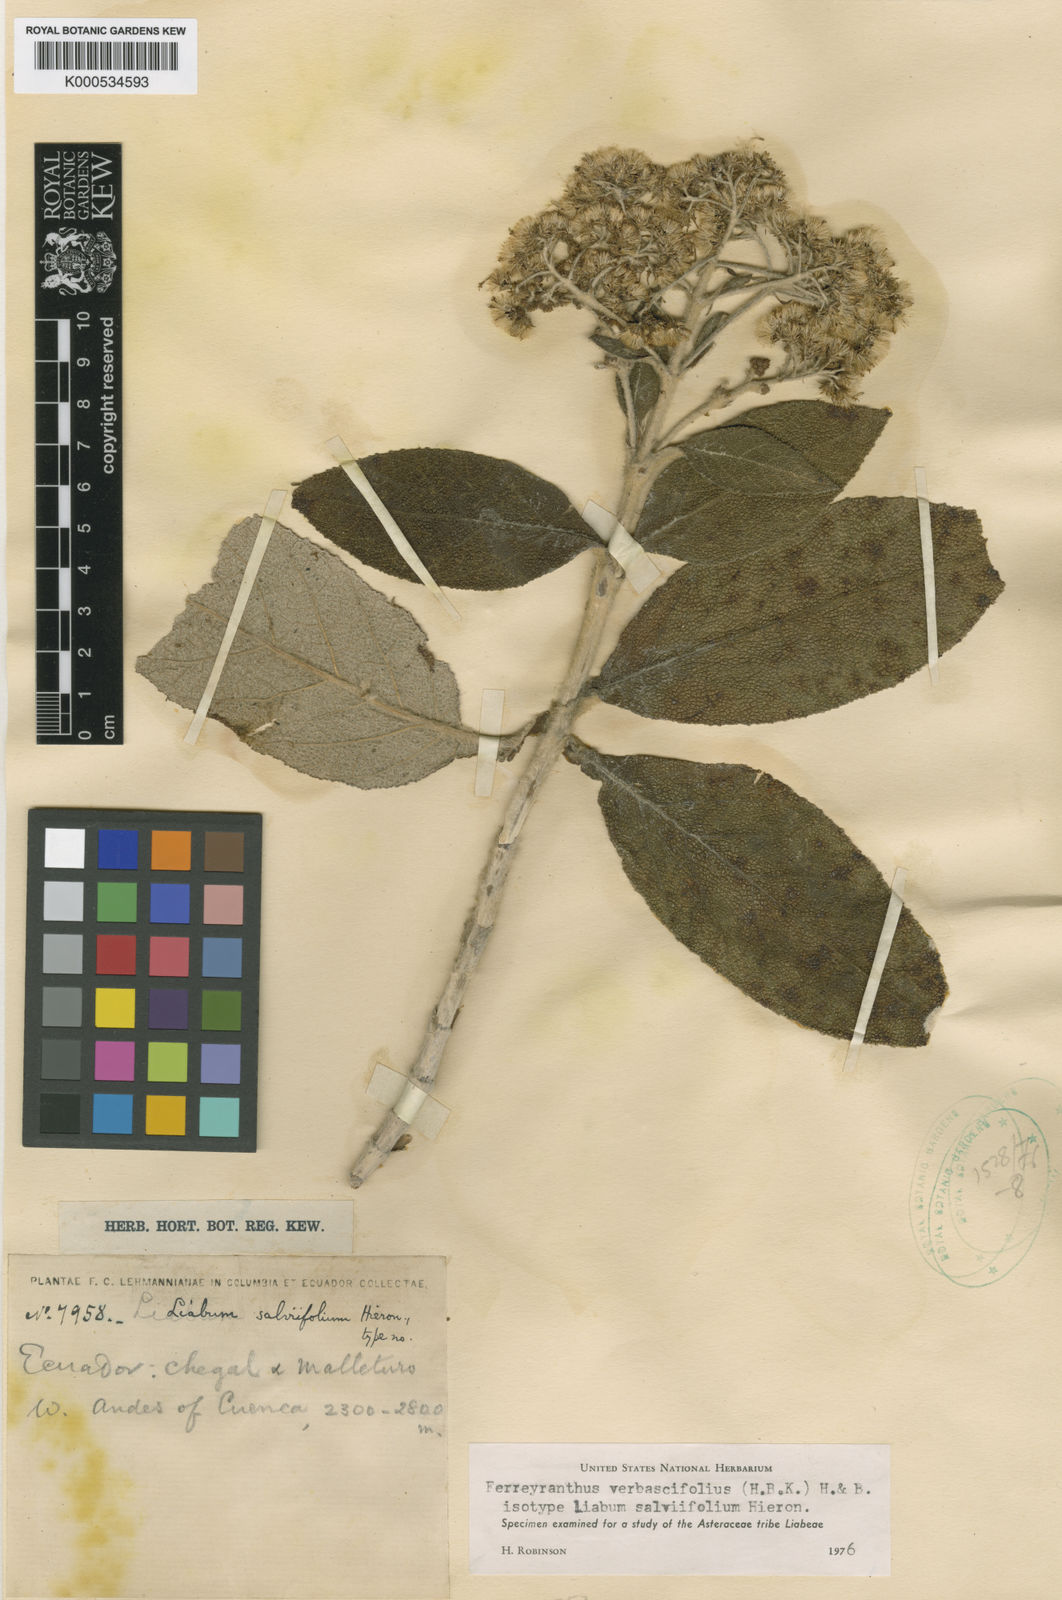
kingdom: Plantae
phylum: Tracheophyta
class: Magnoliopsida
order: Asterales
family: Asteraceae
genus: Ferreyranthus
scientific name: Ferreyranthus verbascifolius
